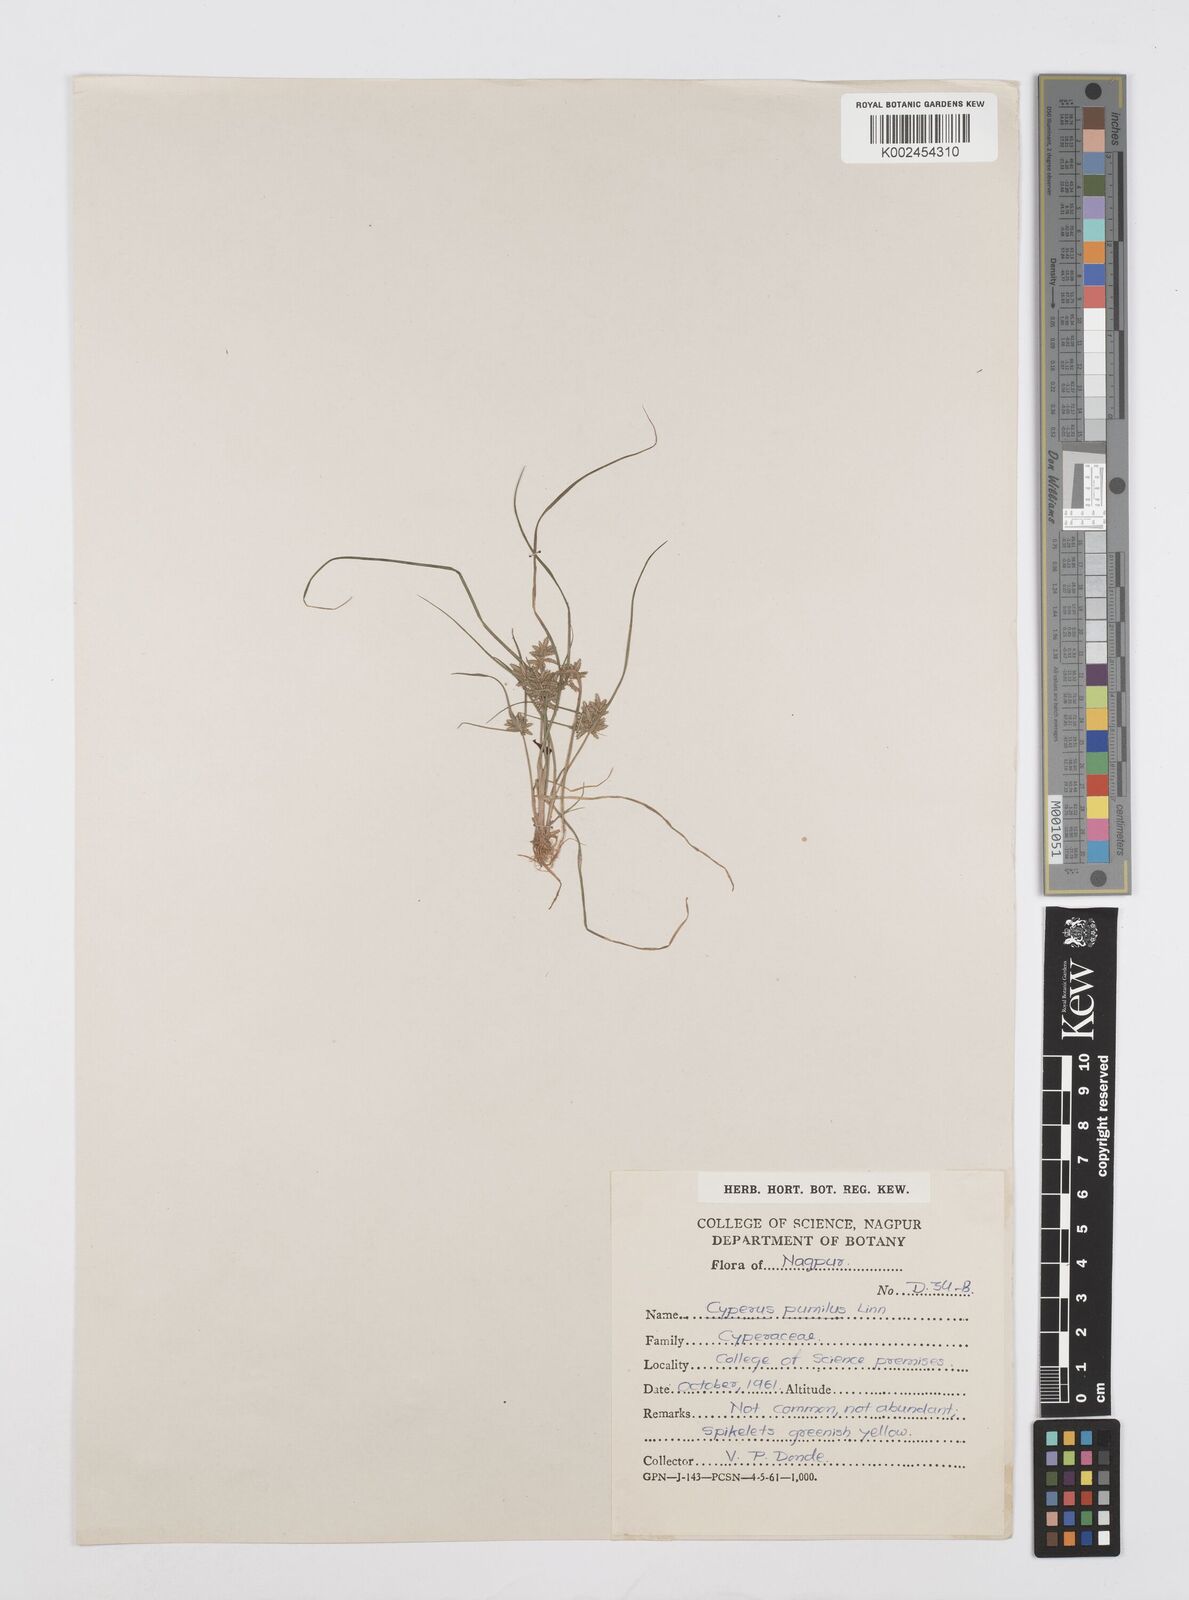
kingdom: Plantae
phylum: Tracheophyta
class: Liliopsida
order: Poales
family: Cyperaceae
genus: Cyperus
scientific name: Cyperus pumilus
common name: Low flatsedge
